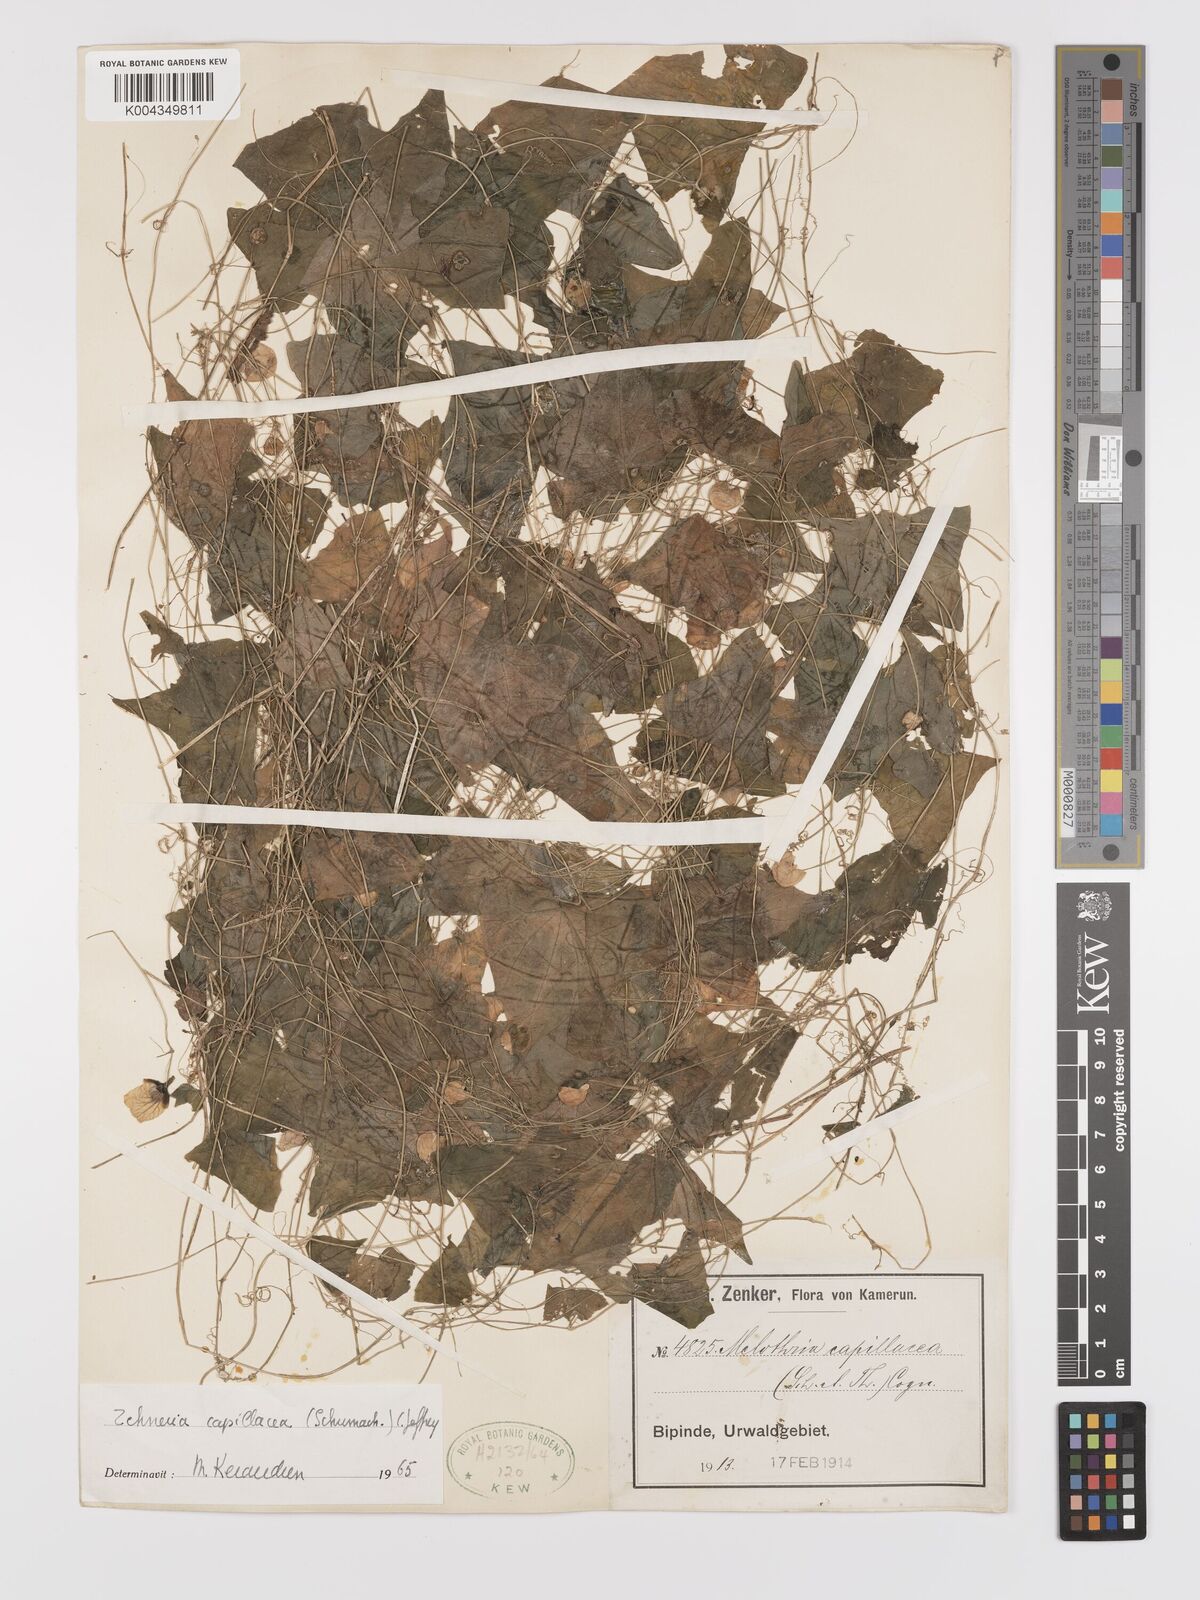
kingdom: Plantae
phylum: Tracheophyta
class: Magnoliopsida
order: Cucurbitales
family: Cucurbitaceae
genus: Zehneria
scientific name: Zehneria capillacea
